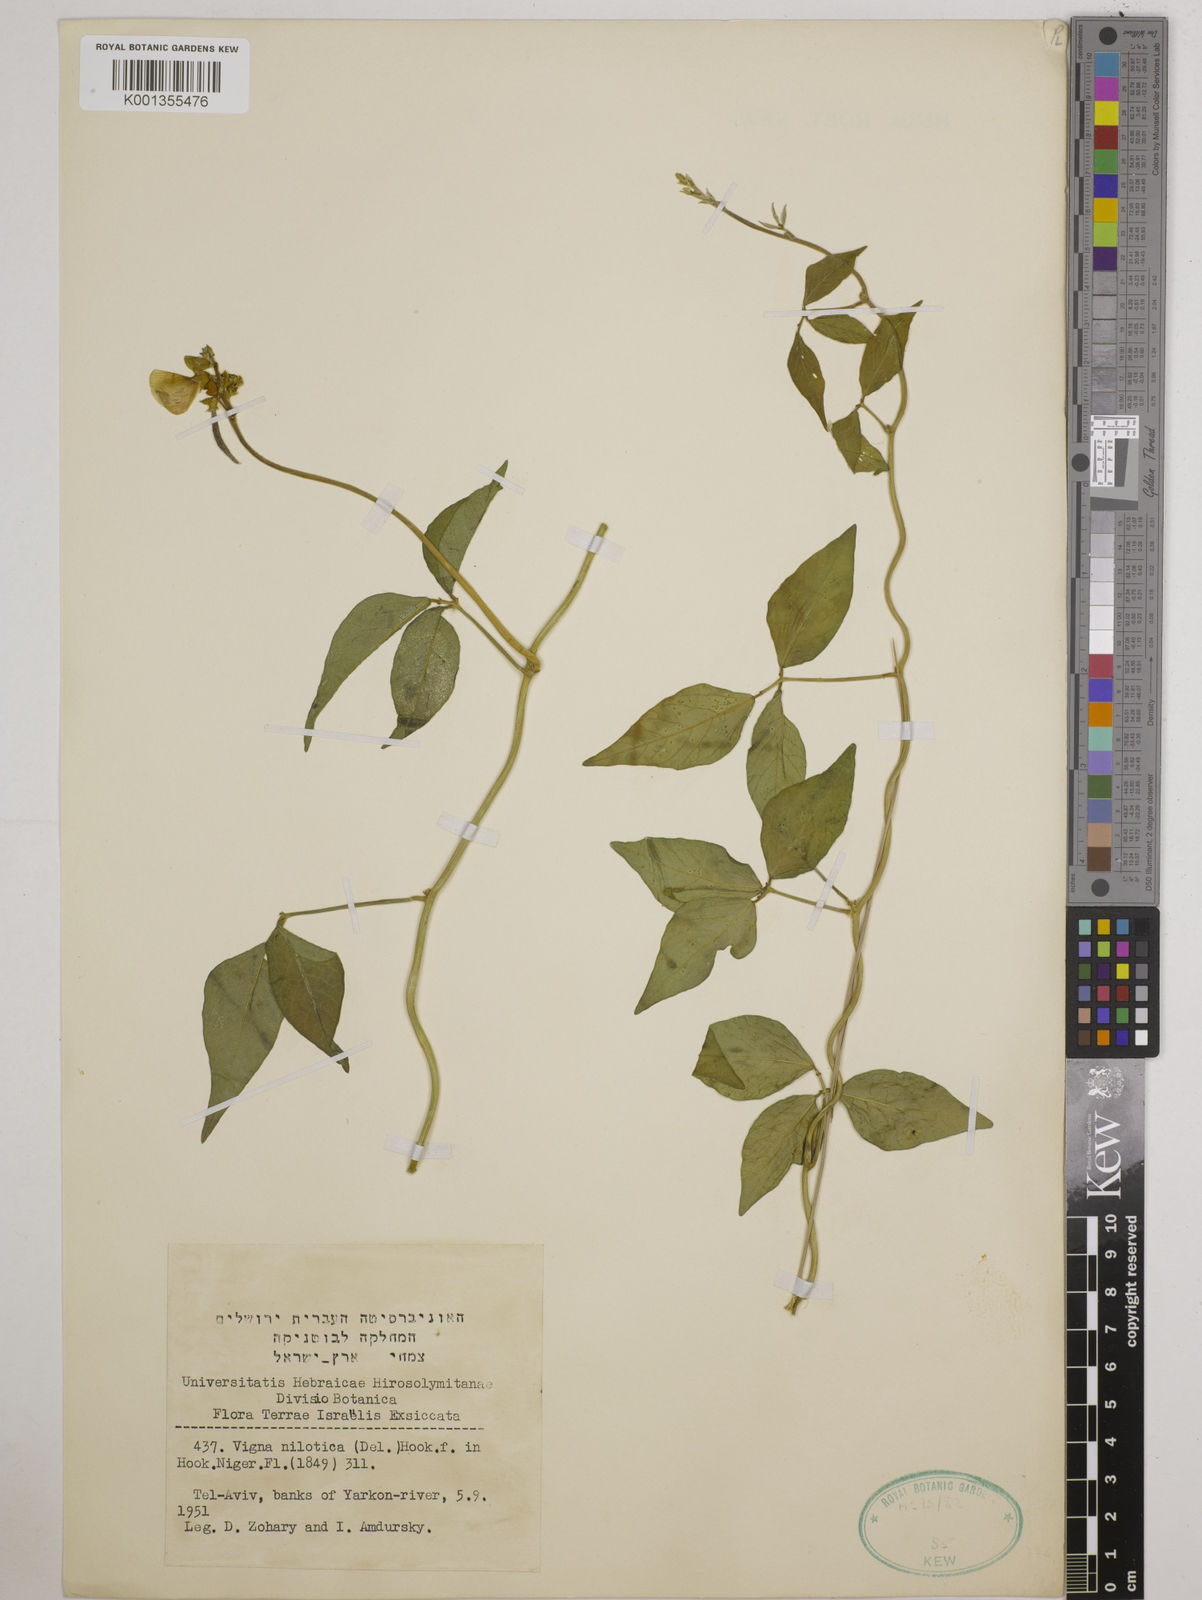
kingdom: Plantae
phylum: Tracheophyta
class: Magnoliopsida
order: Fabales
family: Fabaceae
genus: Vigna
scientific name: Vigna luteola
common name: Hairypod cowpea
